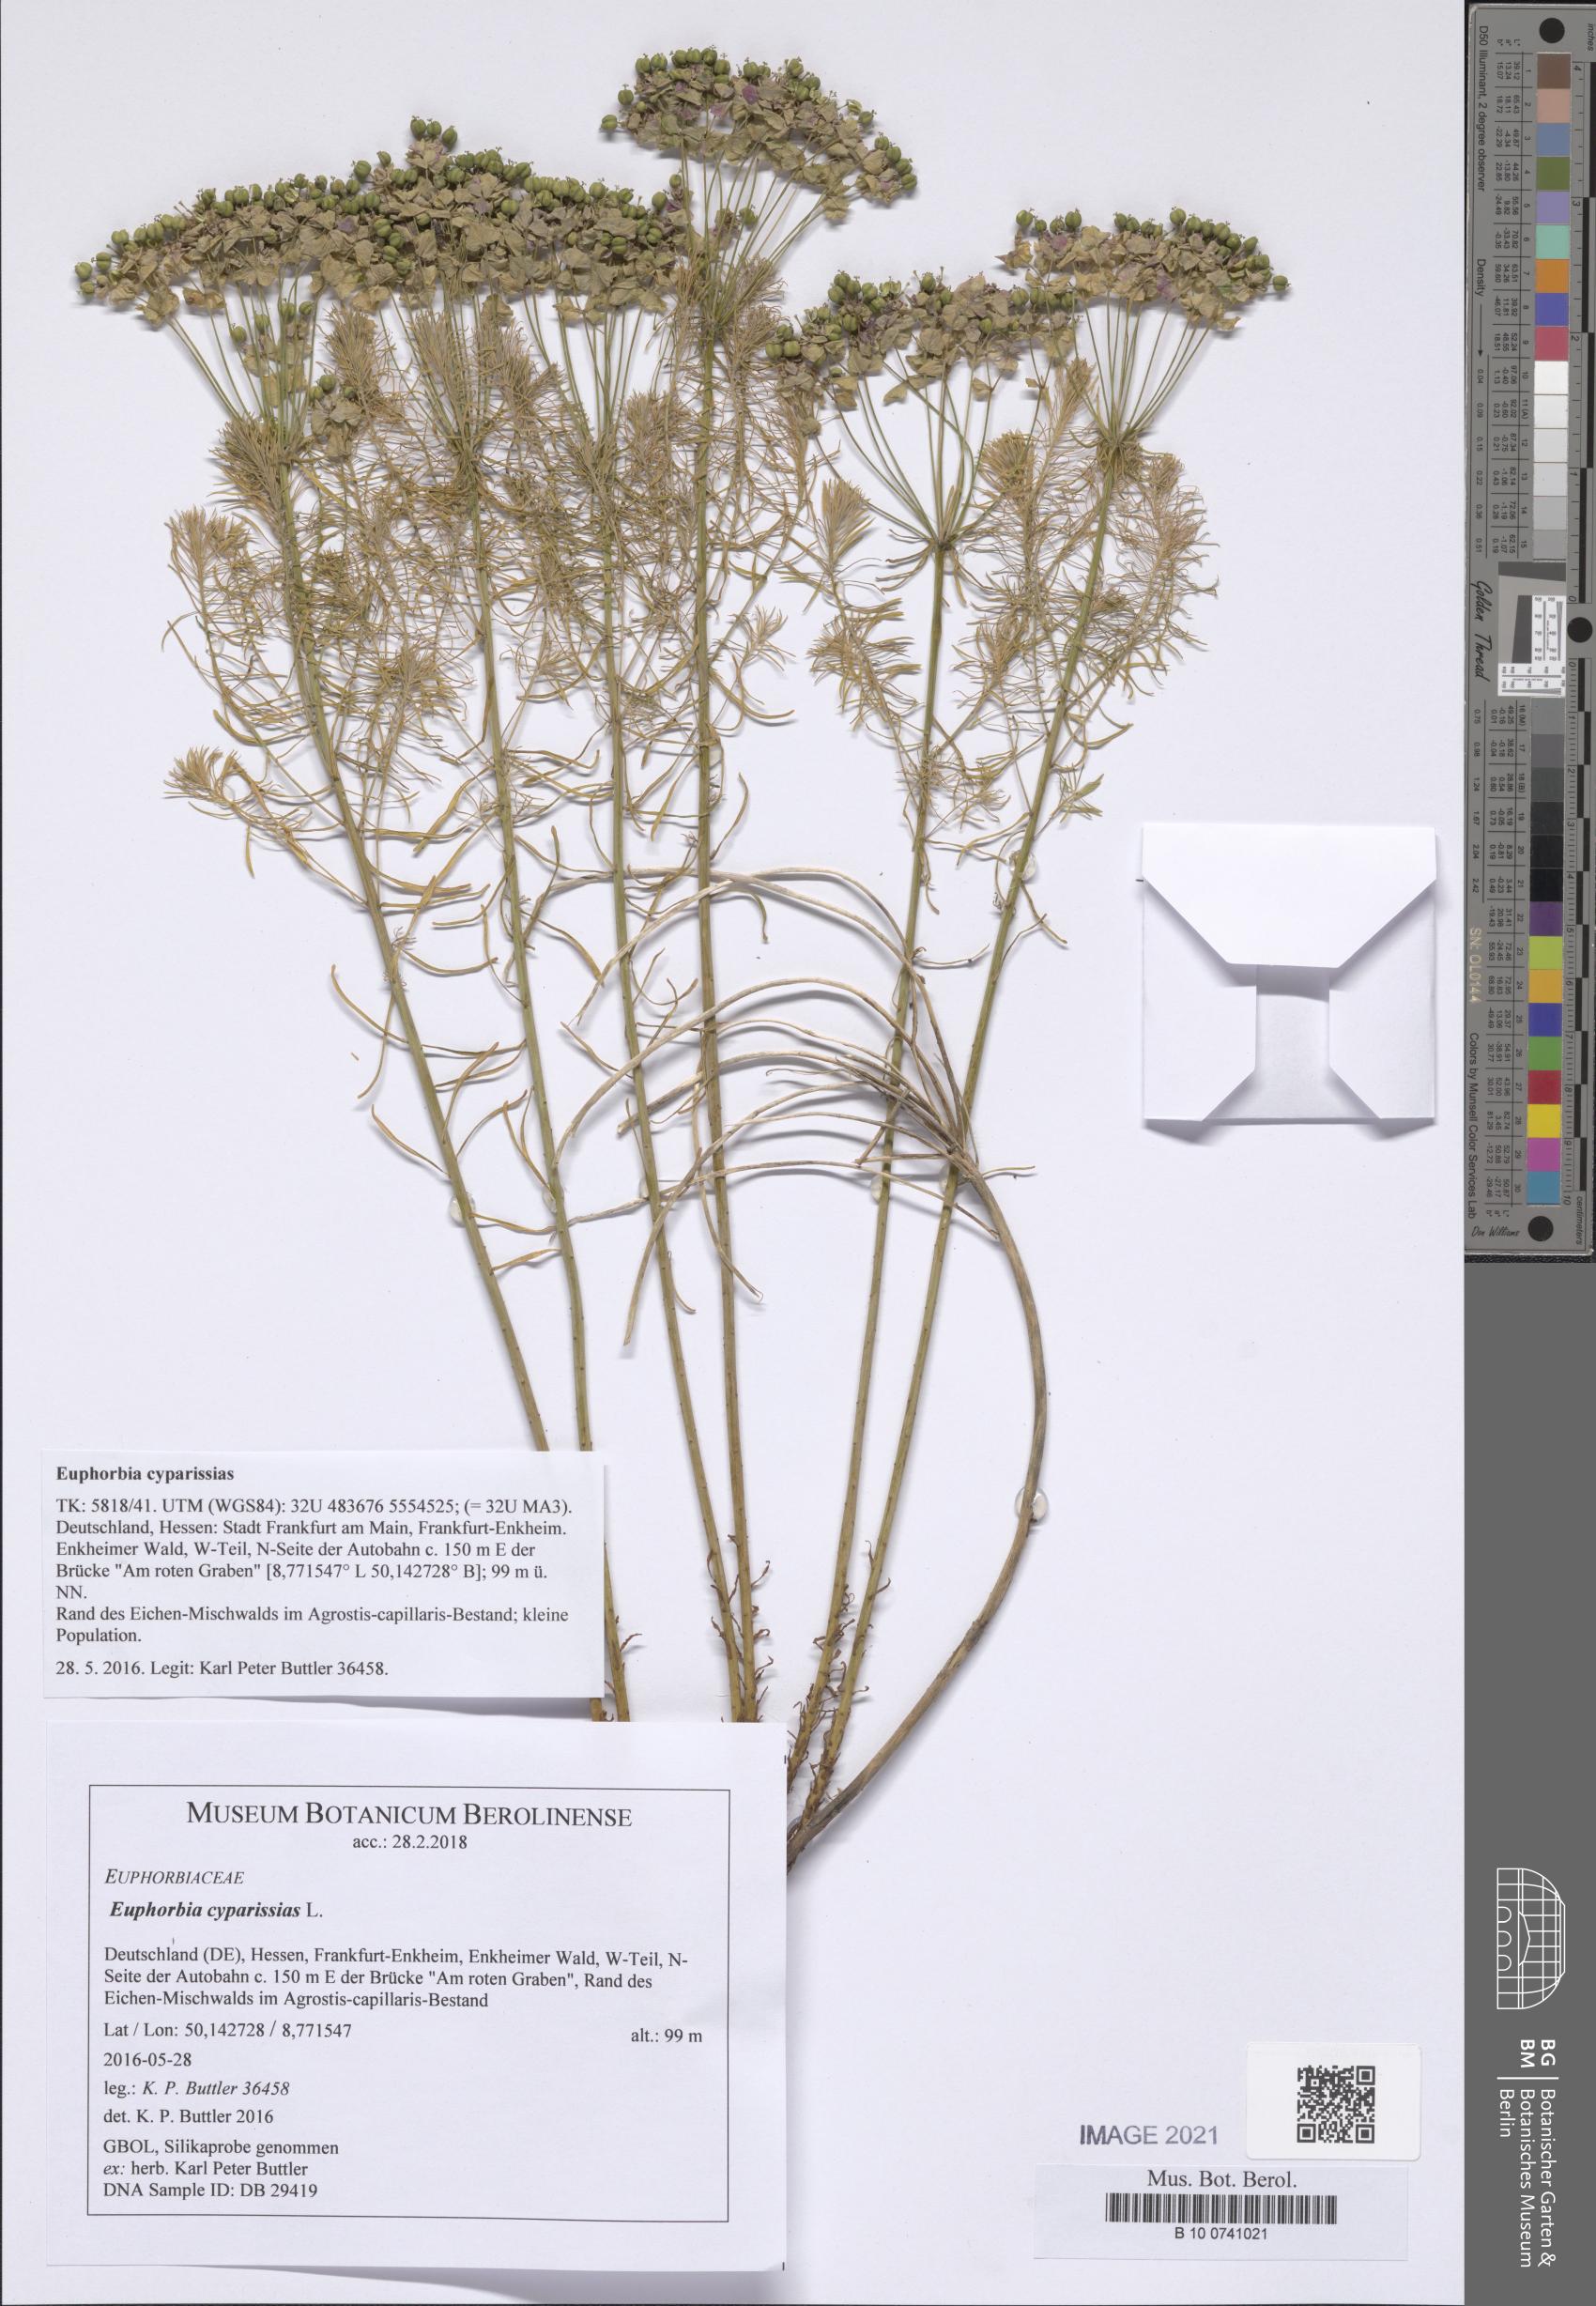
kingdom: Plantae
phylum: Tracheophyta
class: Magnoliopsida
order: Malpighiales
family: Euphorbiaceae
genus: Euphorbia
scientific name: Euphorbia cyparissias
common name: Cypress spurge
